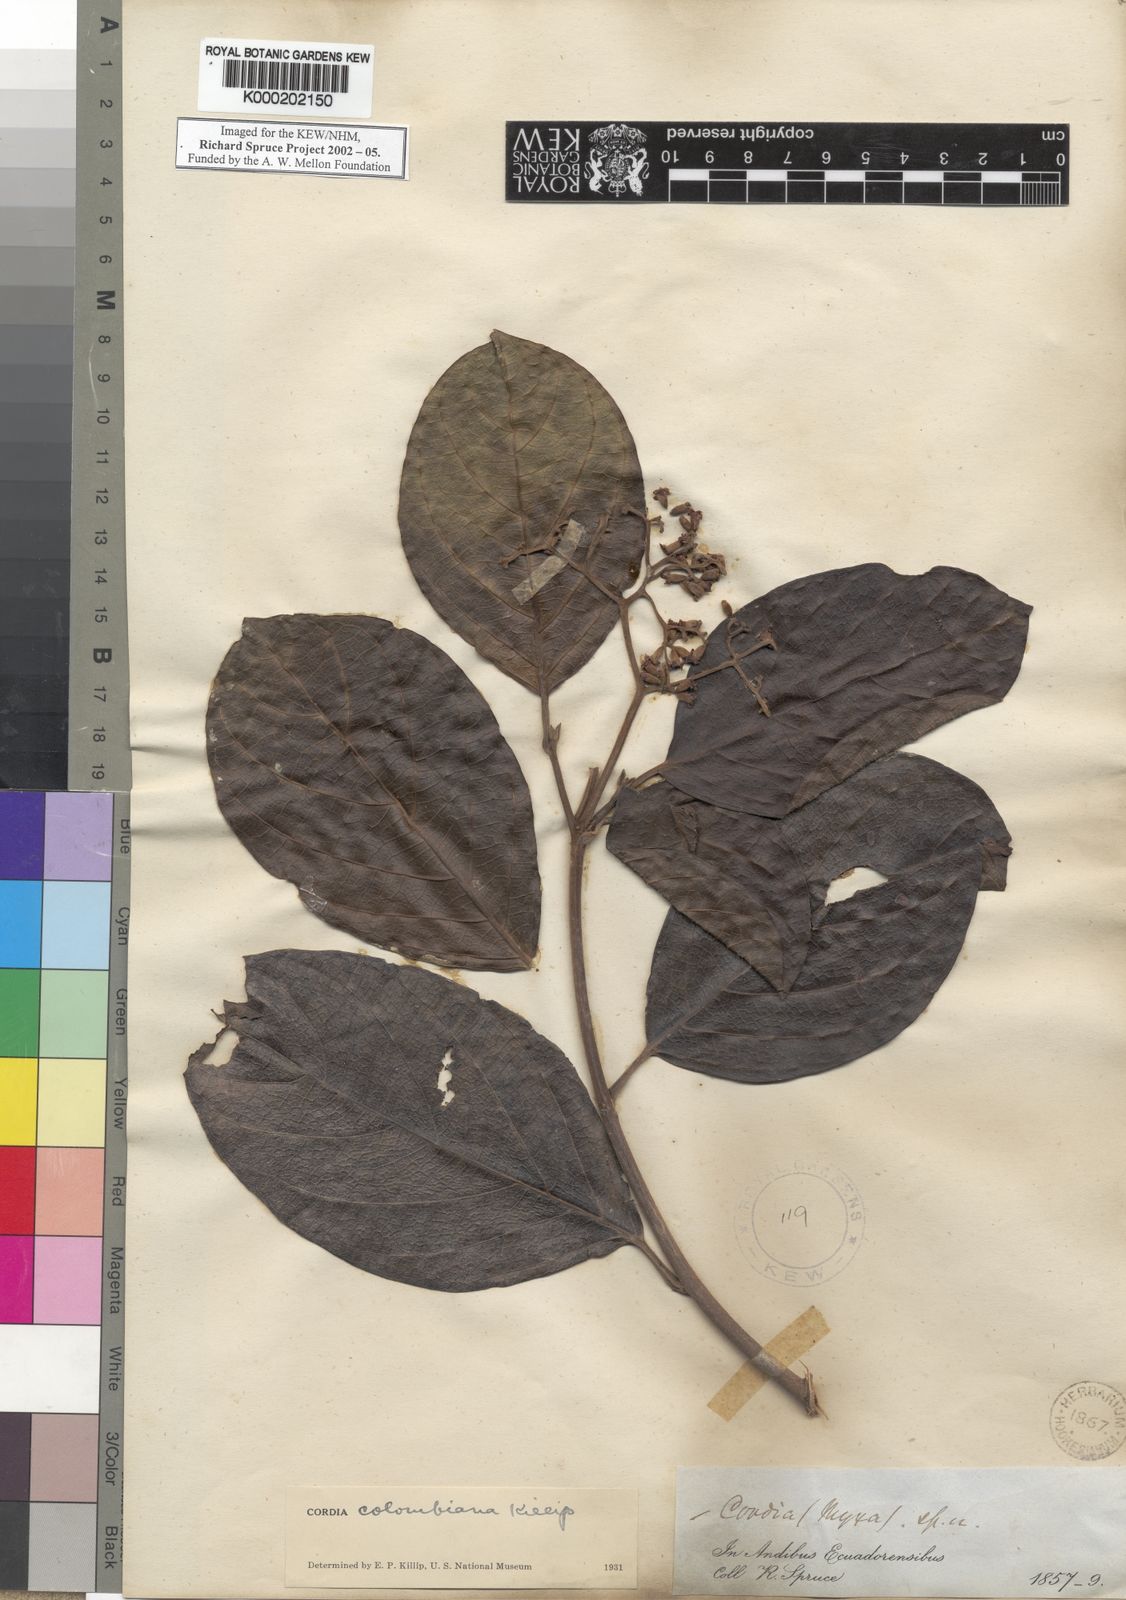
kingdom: Plantae
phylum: Tracheophyta
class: Magnoliopsida
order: Boraginales
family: Cordiaceae
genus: Cordia
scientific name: Cordia colombiana
